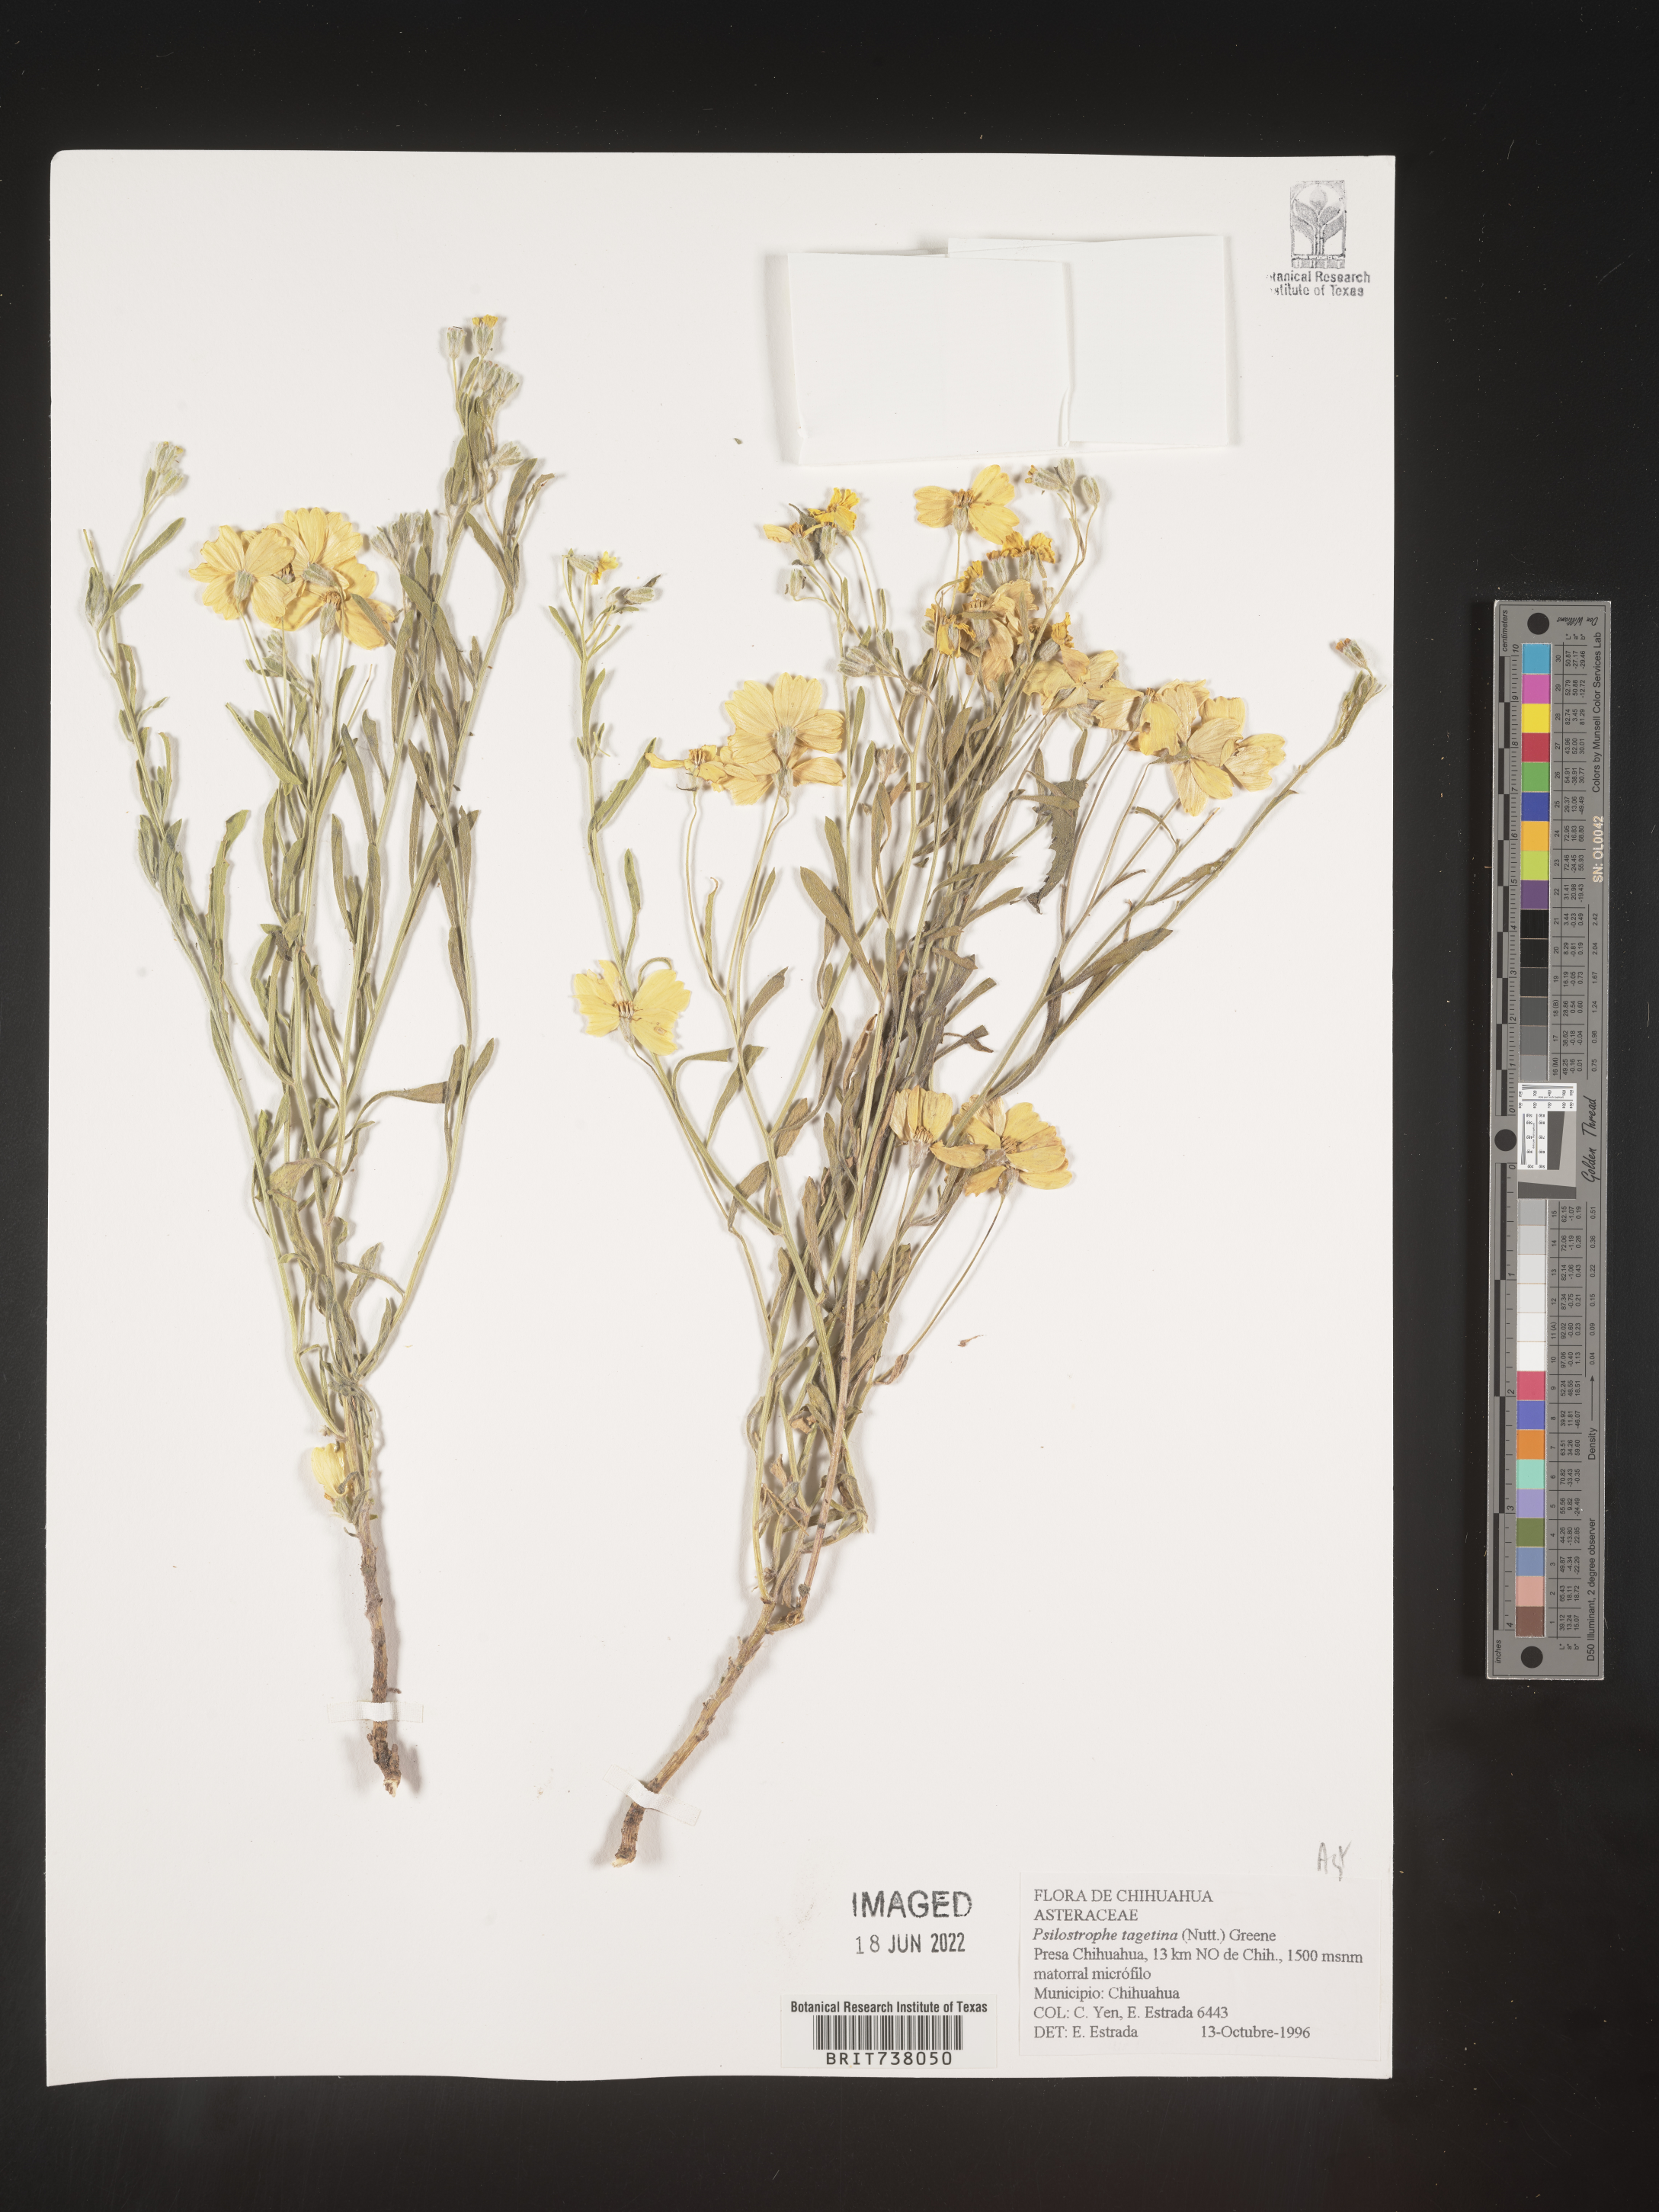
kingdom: Plantae
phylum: Tracheophyta
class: Magnoliopsida
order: Asterales
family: Asteraceae
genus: Psilostrophe
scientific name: Psilostrophe
